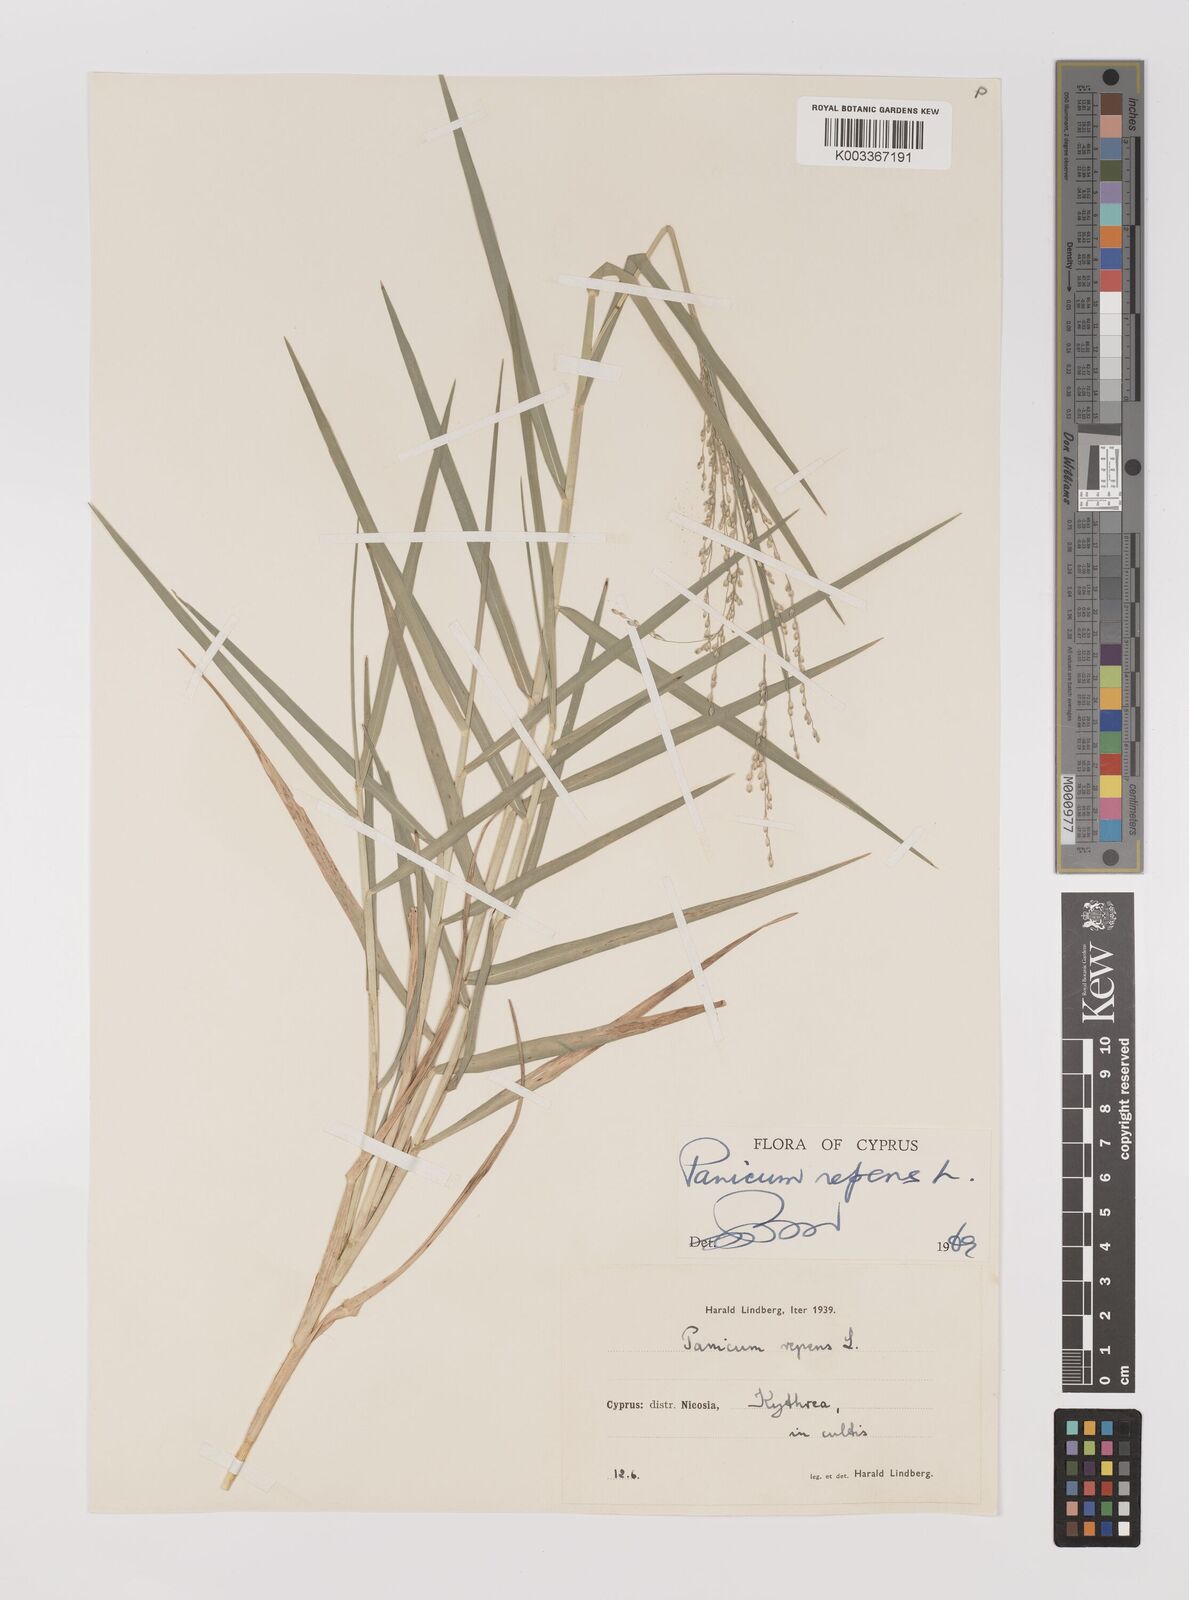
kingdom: Plantae
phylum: Tracheophyta
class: Liliopsida
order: Poales
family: Poaceae
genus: Panicum
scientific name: Panicum repens
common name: Torpedo grass
